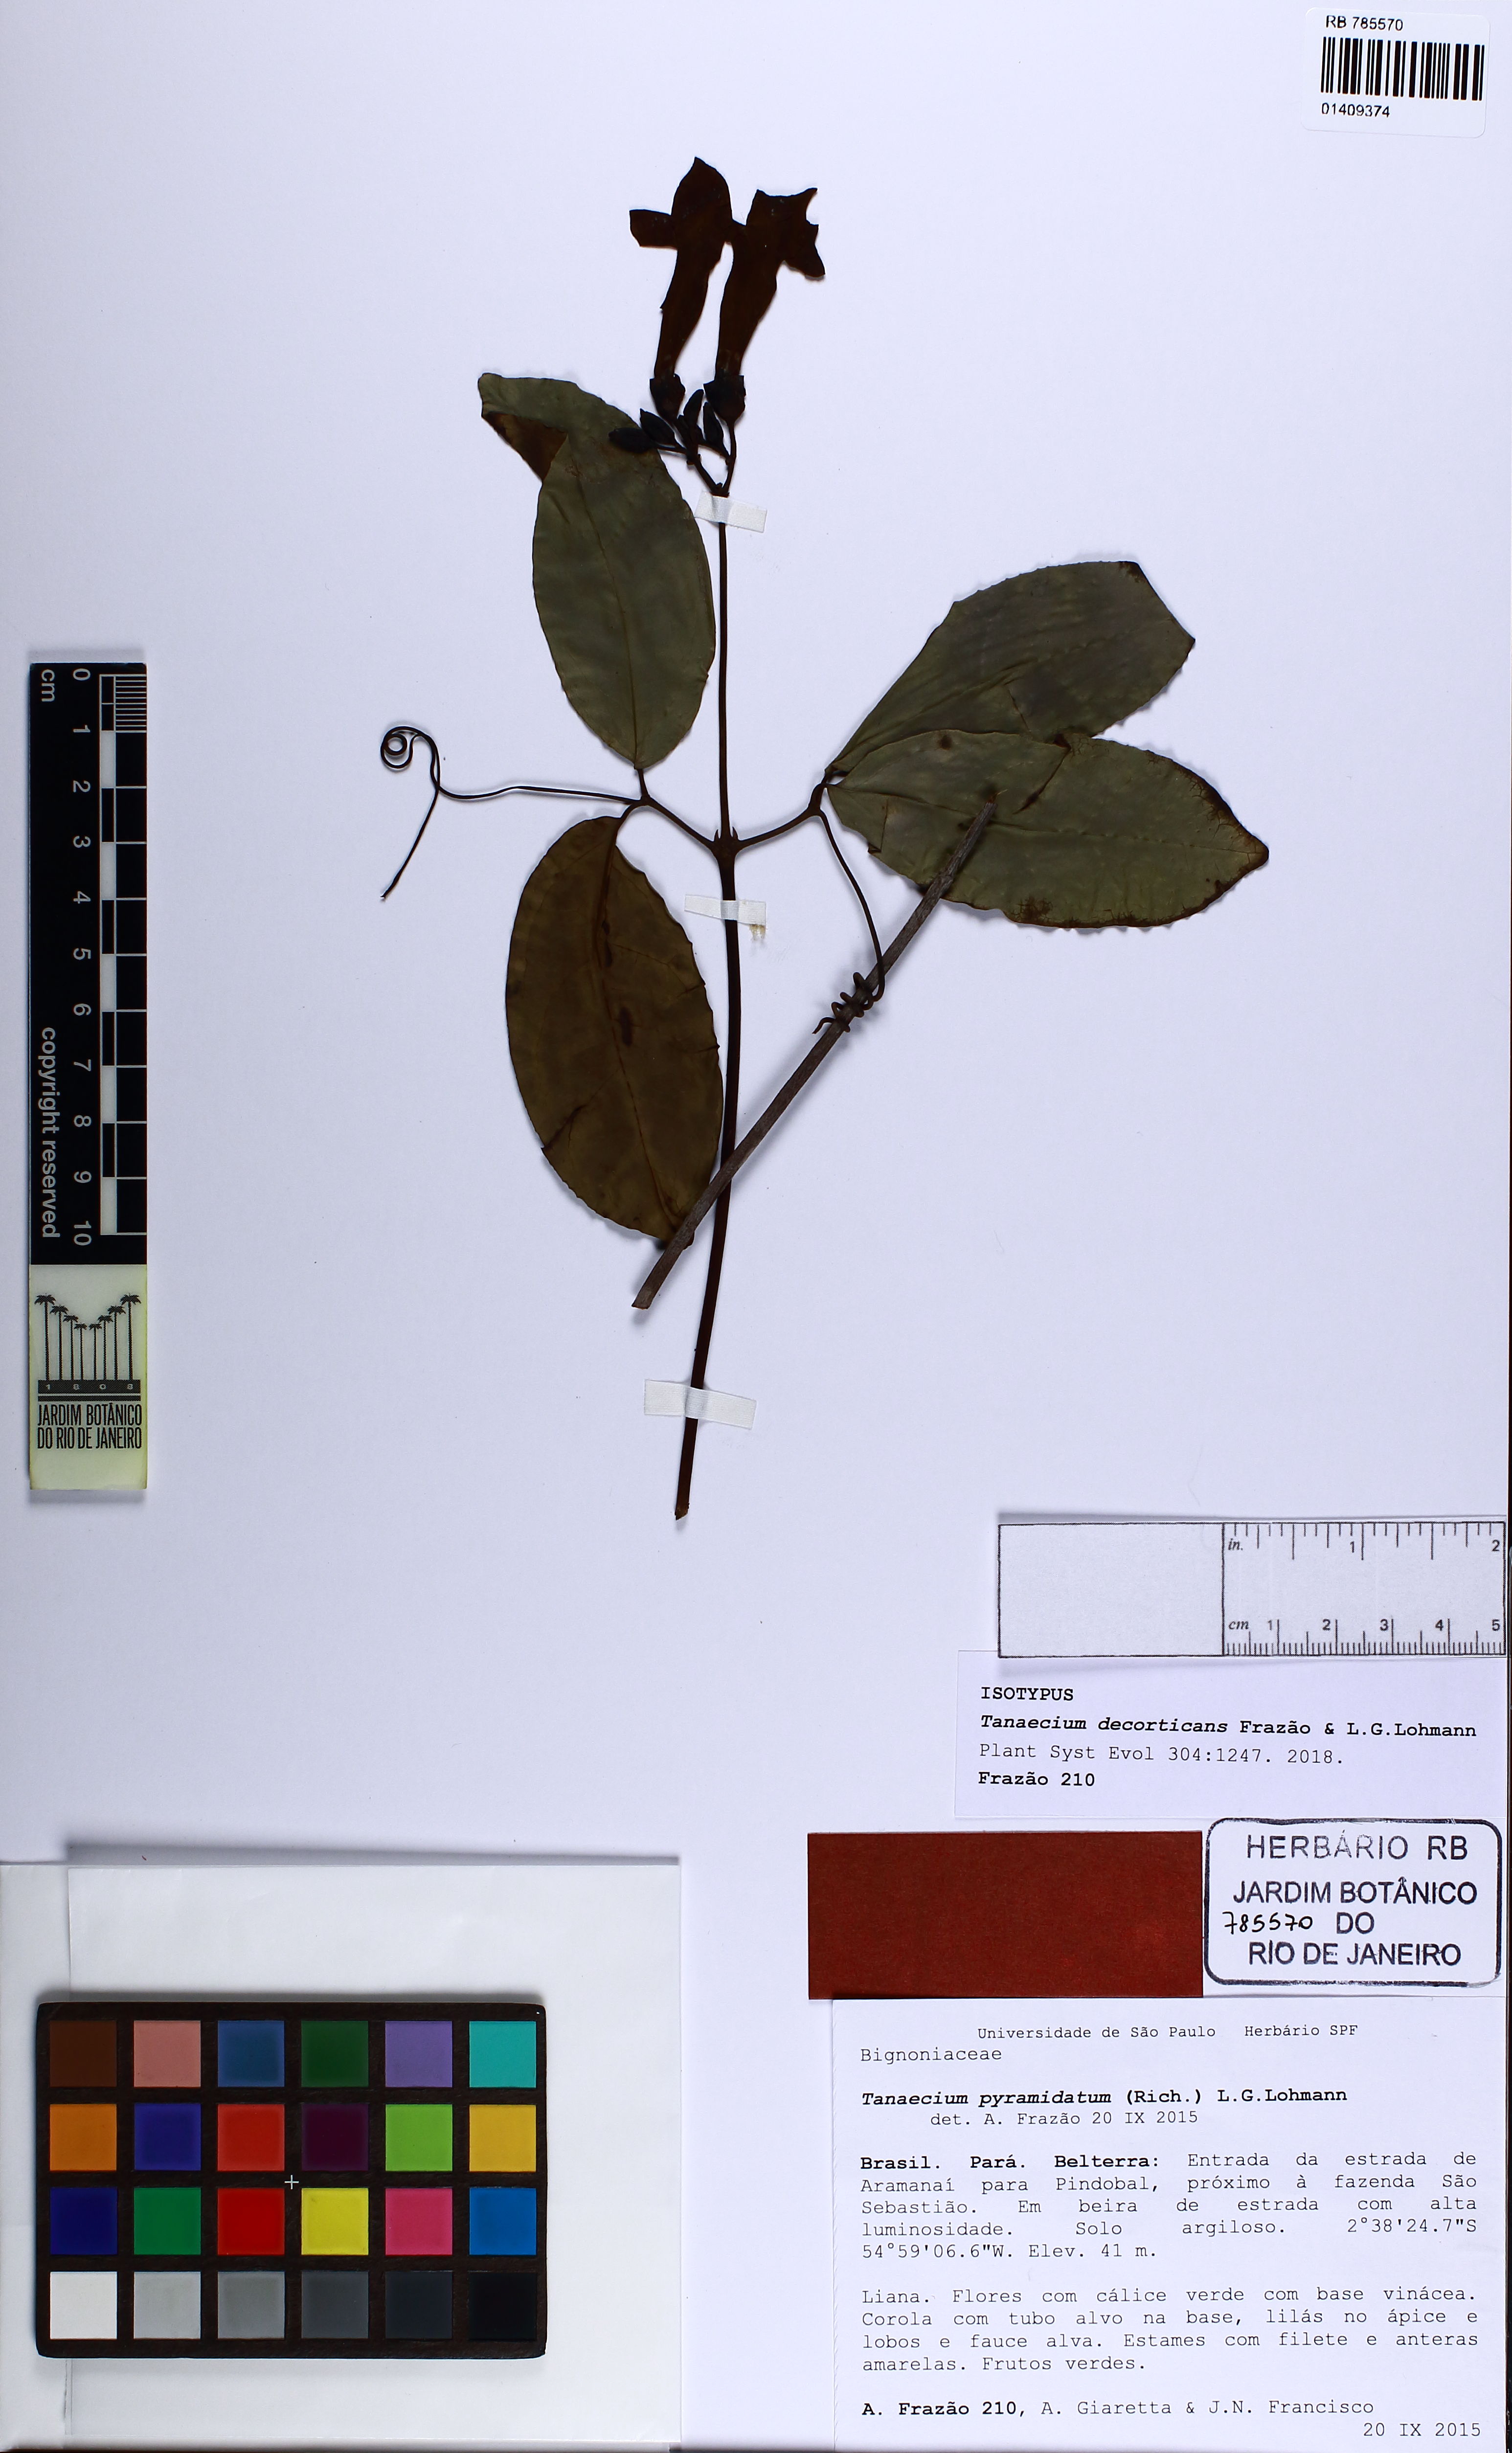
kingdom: Plantae
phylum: Tracheophyta
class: Magnoliopsida
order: Lamiales
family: Bignoniaceae
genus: Tanaecium
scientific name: Tanaecium decorticans
